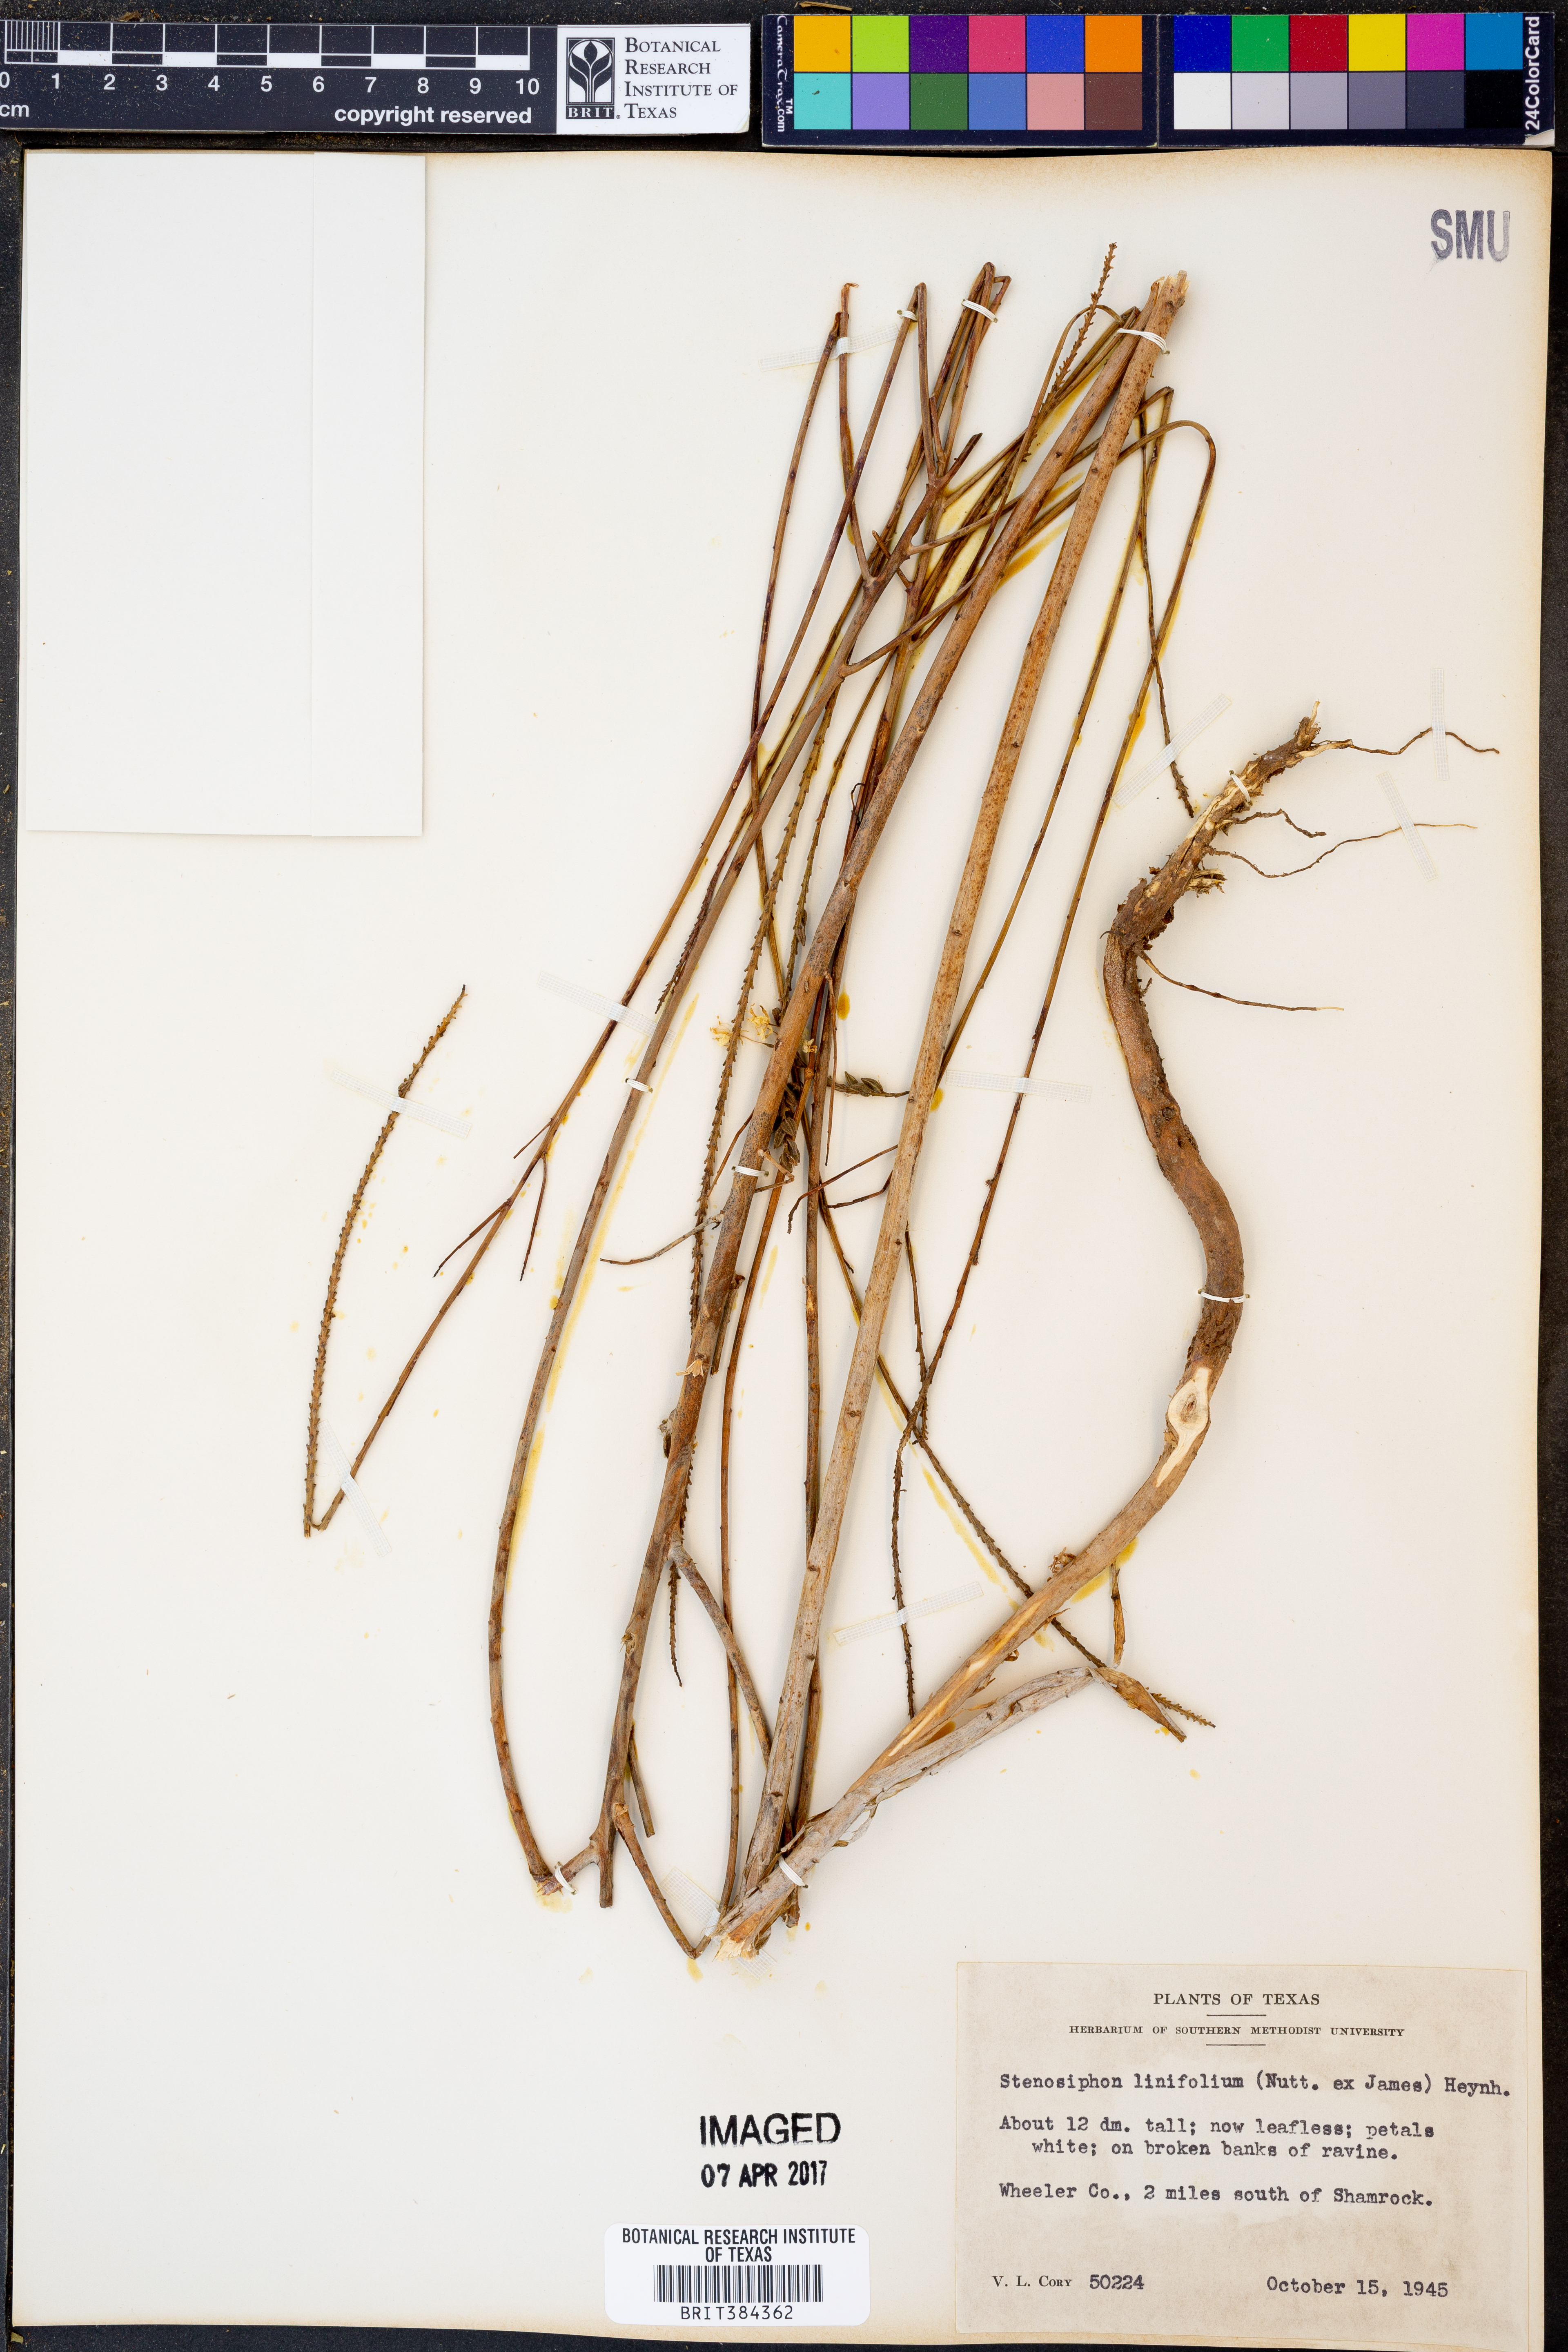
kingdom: Plantae
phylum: Tracheophyta
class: Magnoliopsida
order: Myrtales
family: Onagraceae
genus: Oenothera
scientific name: Oenothera glaucifolia
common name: False gaura
